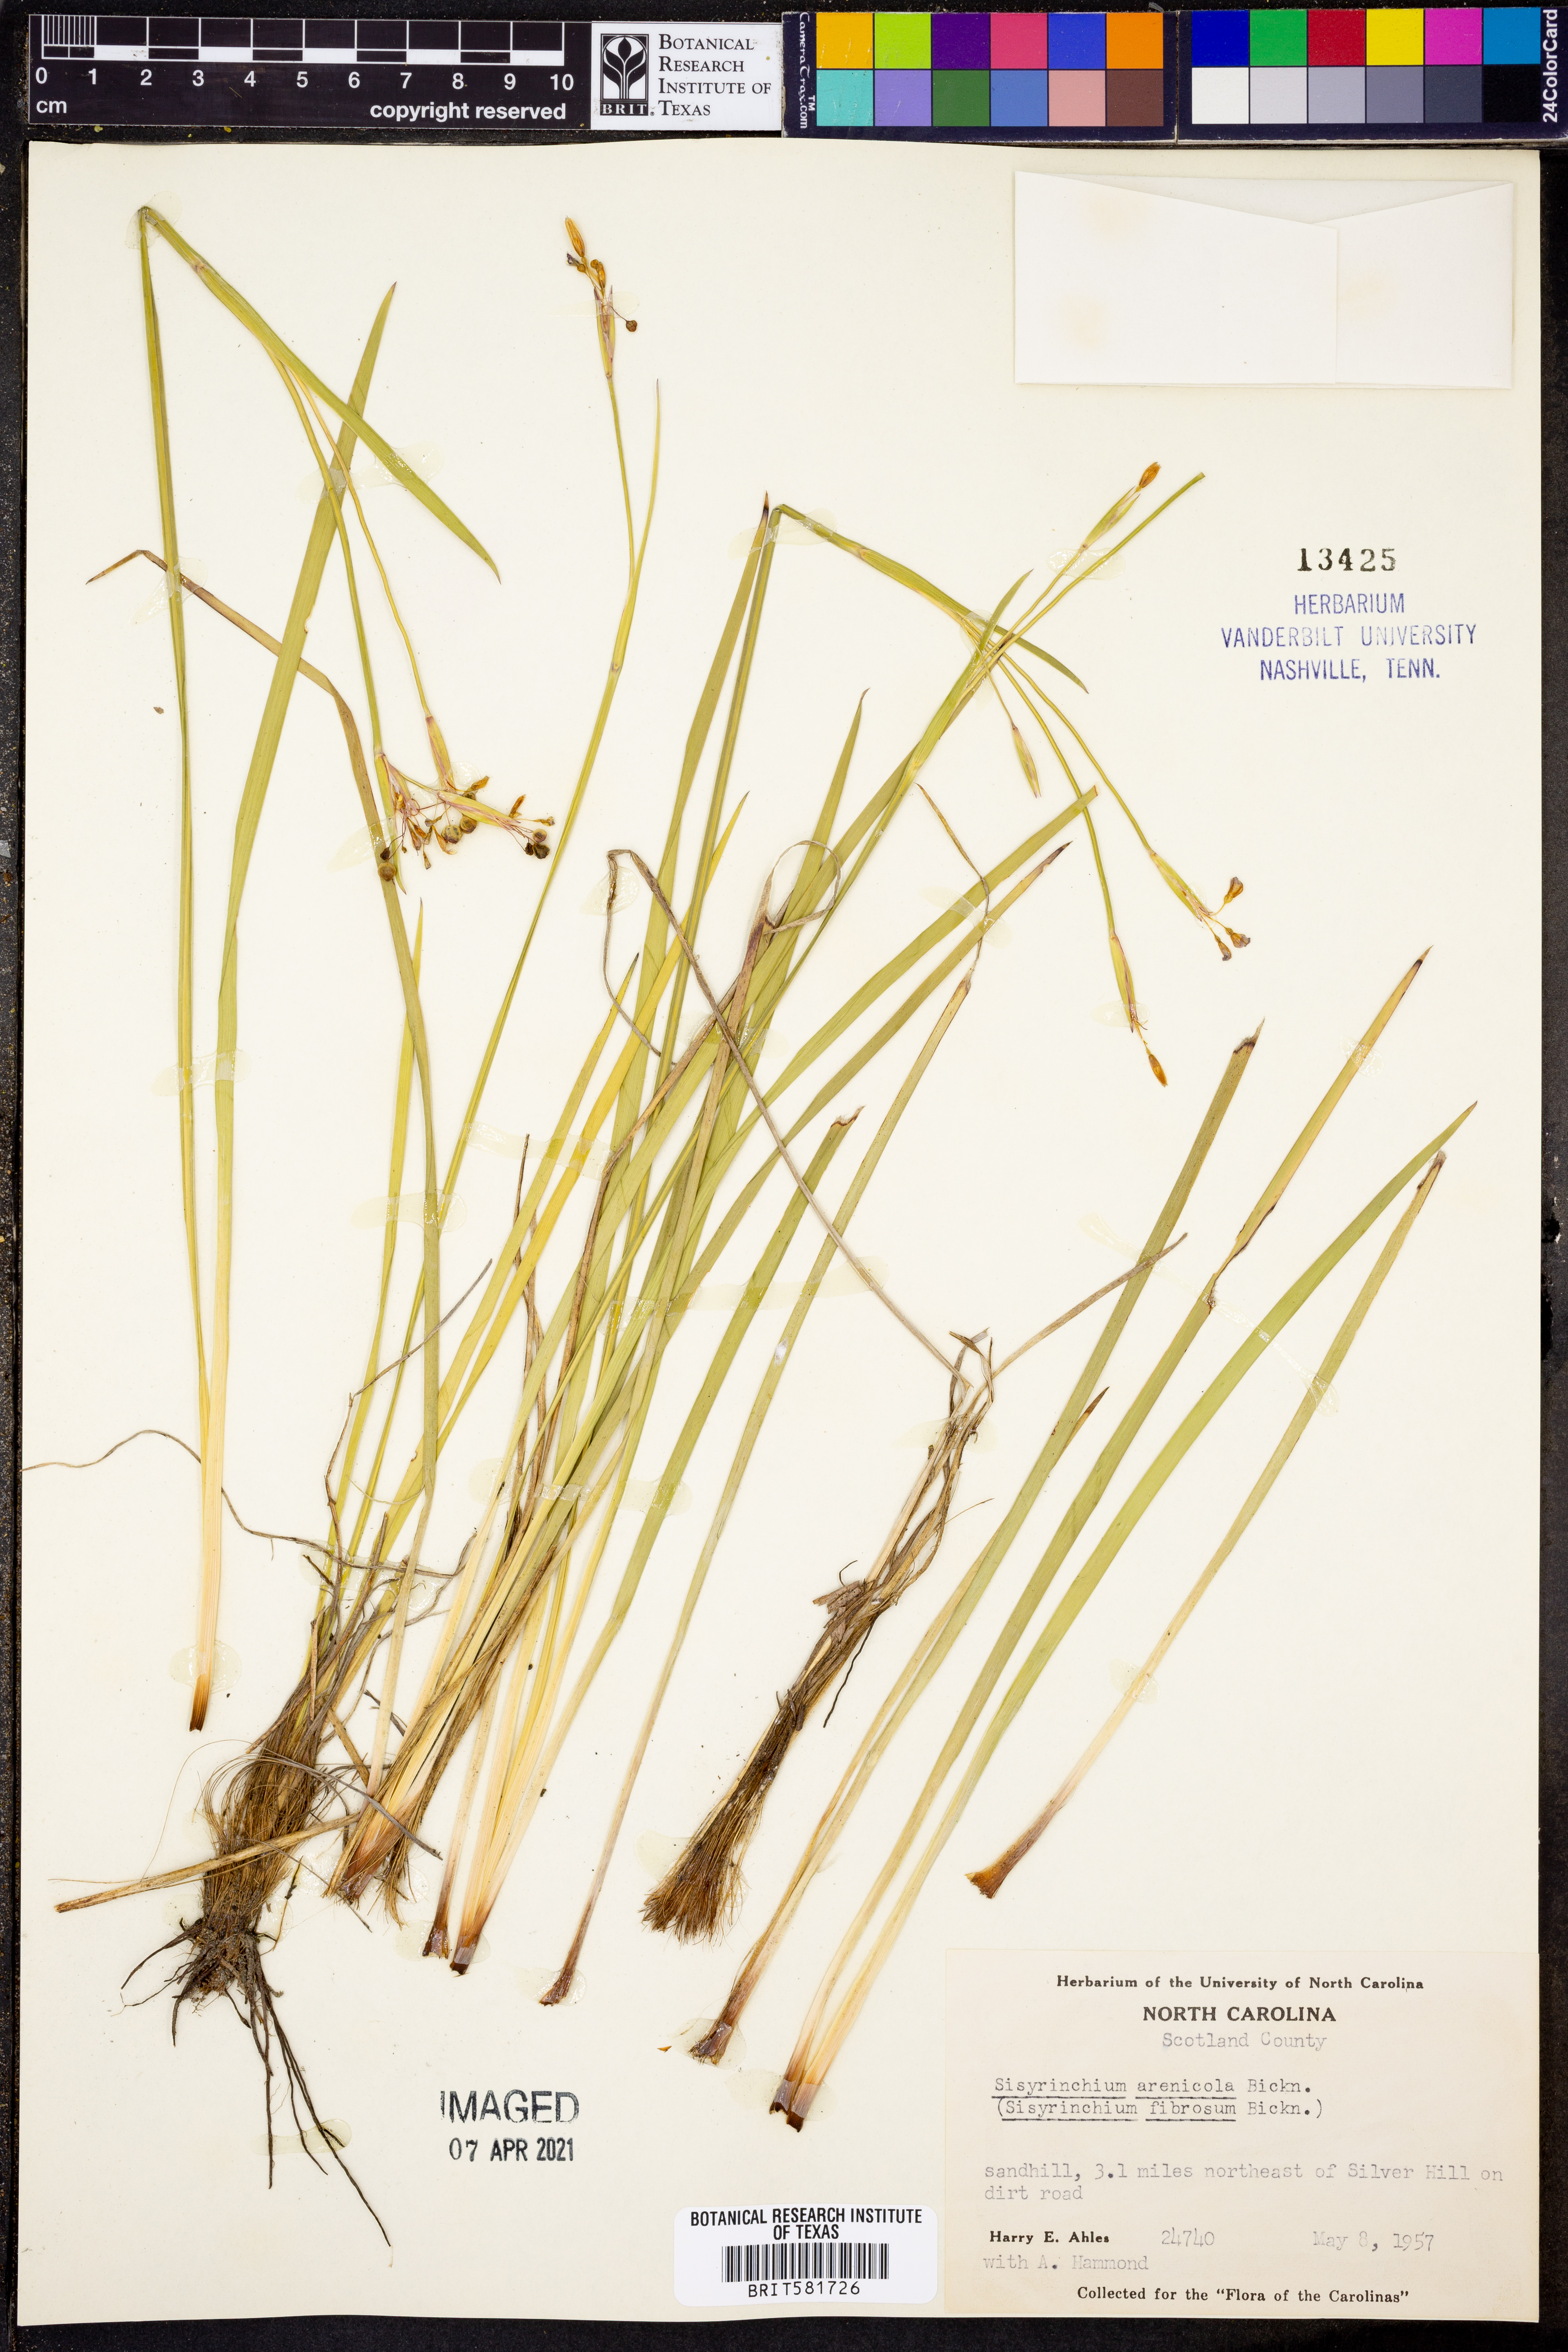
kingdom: Plantae
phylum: Tracheophyta
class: Liliopsida
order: Asparagales
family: Iridaceae
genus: Sisyrinchium
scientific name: Sisyrinchium fuscatum
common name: Coastal plain blue-eyed-grass
